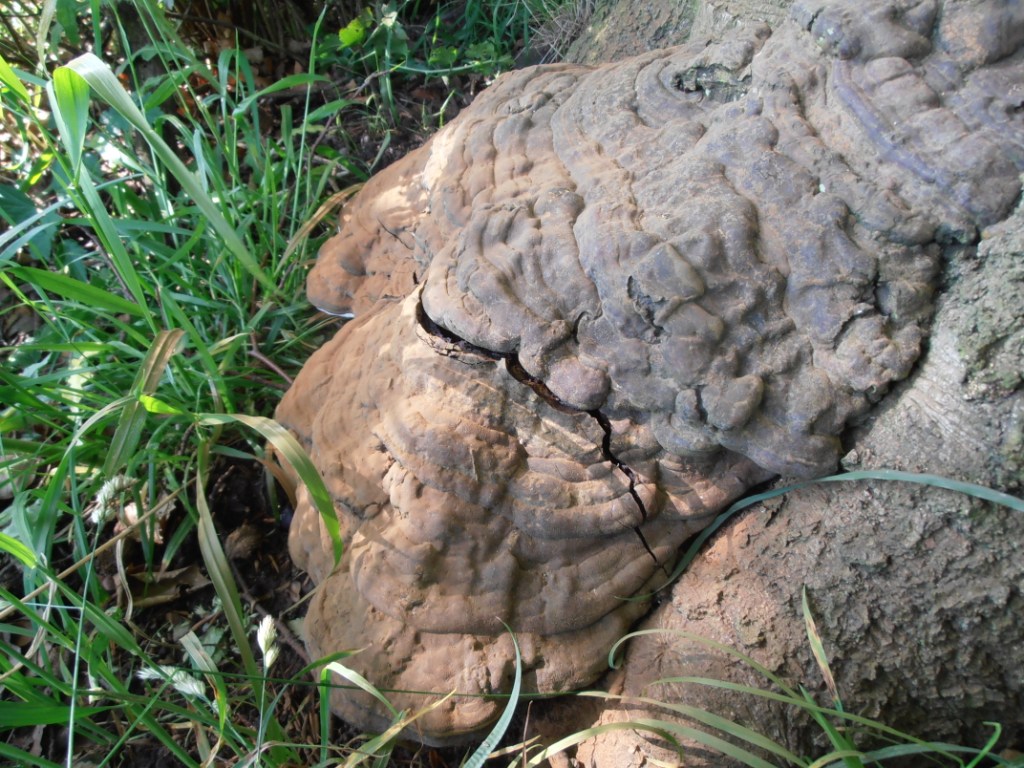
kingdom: Fungi
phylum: Basidiomycota
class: Agaricomycetes
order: Polyporales
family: Polyporaceae
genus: Ganoderma
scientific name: Ganoderma pfeifferi
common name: kobberrød lakporesvamp
